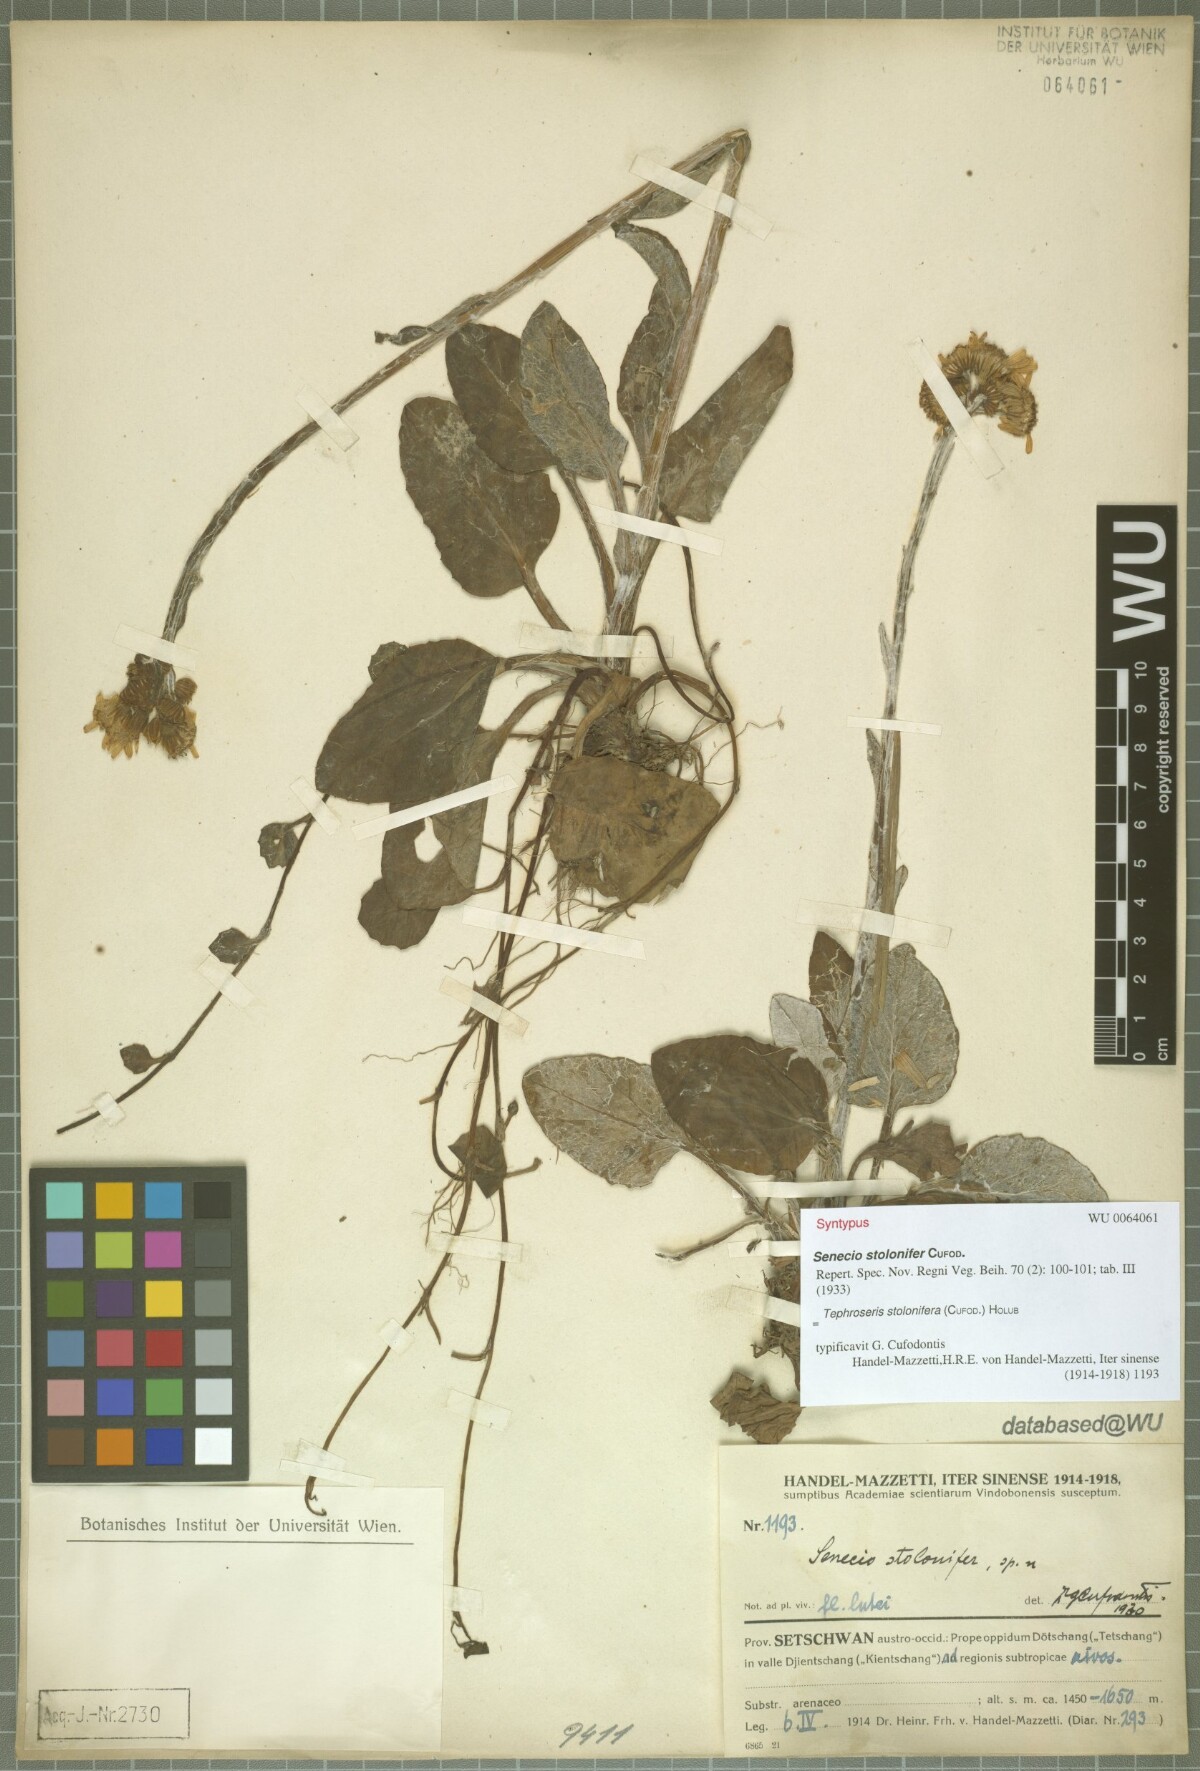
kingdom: Plantae
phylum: Tracheophyta
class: Magnoliopsida
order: Asterales
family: Asteraceae
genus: Tephroseris
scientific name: Tephroseris stolonifera
